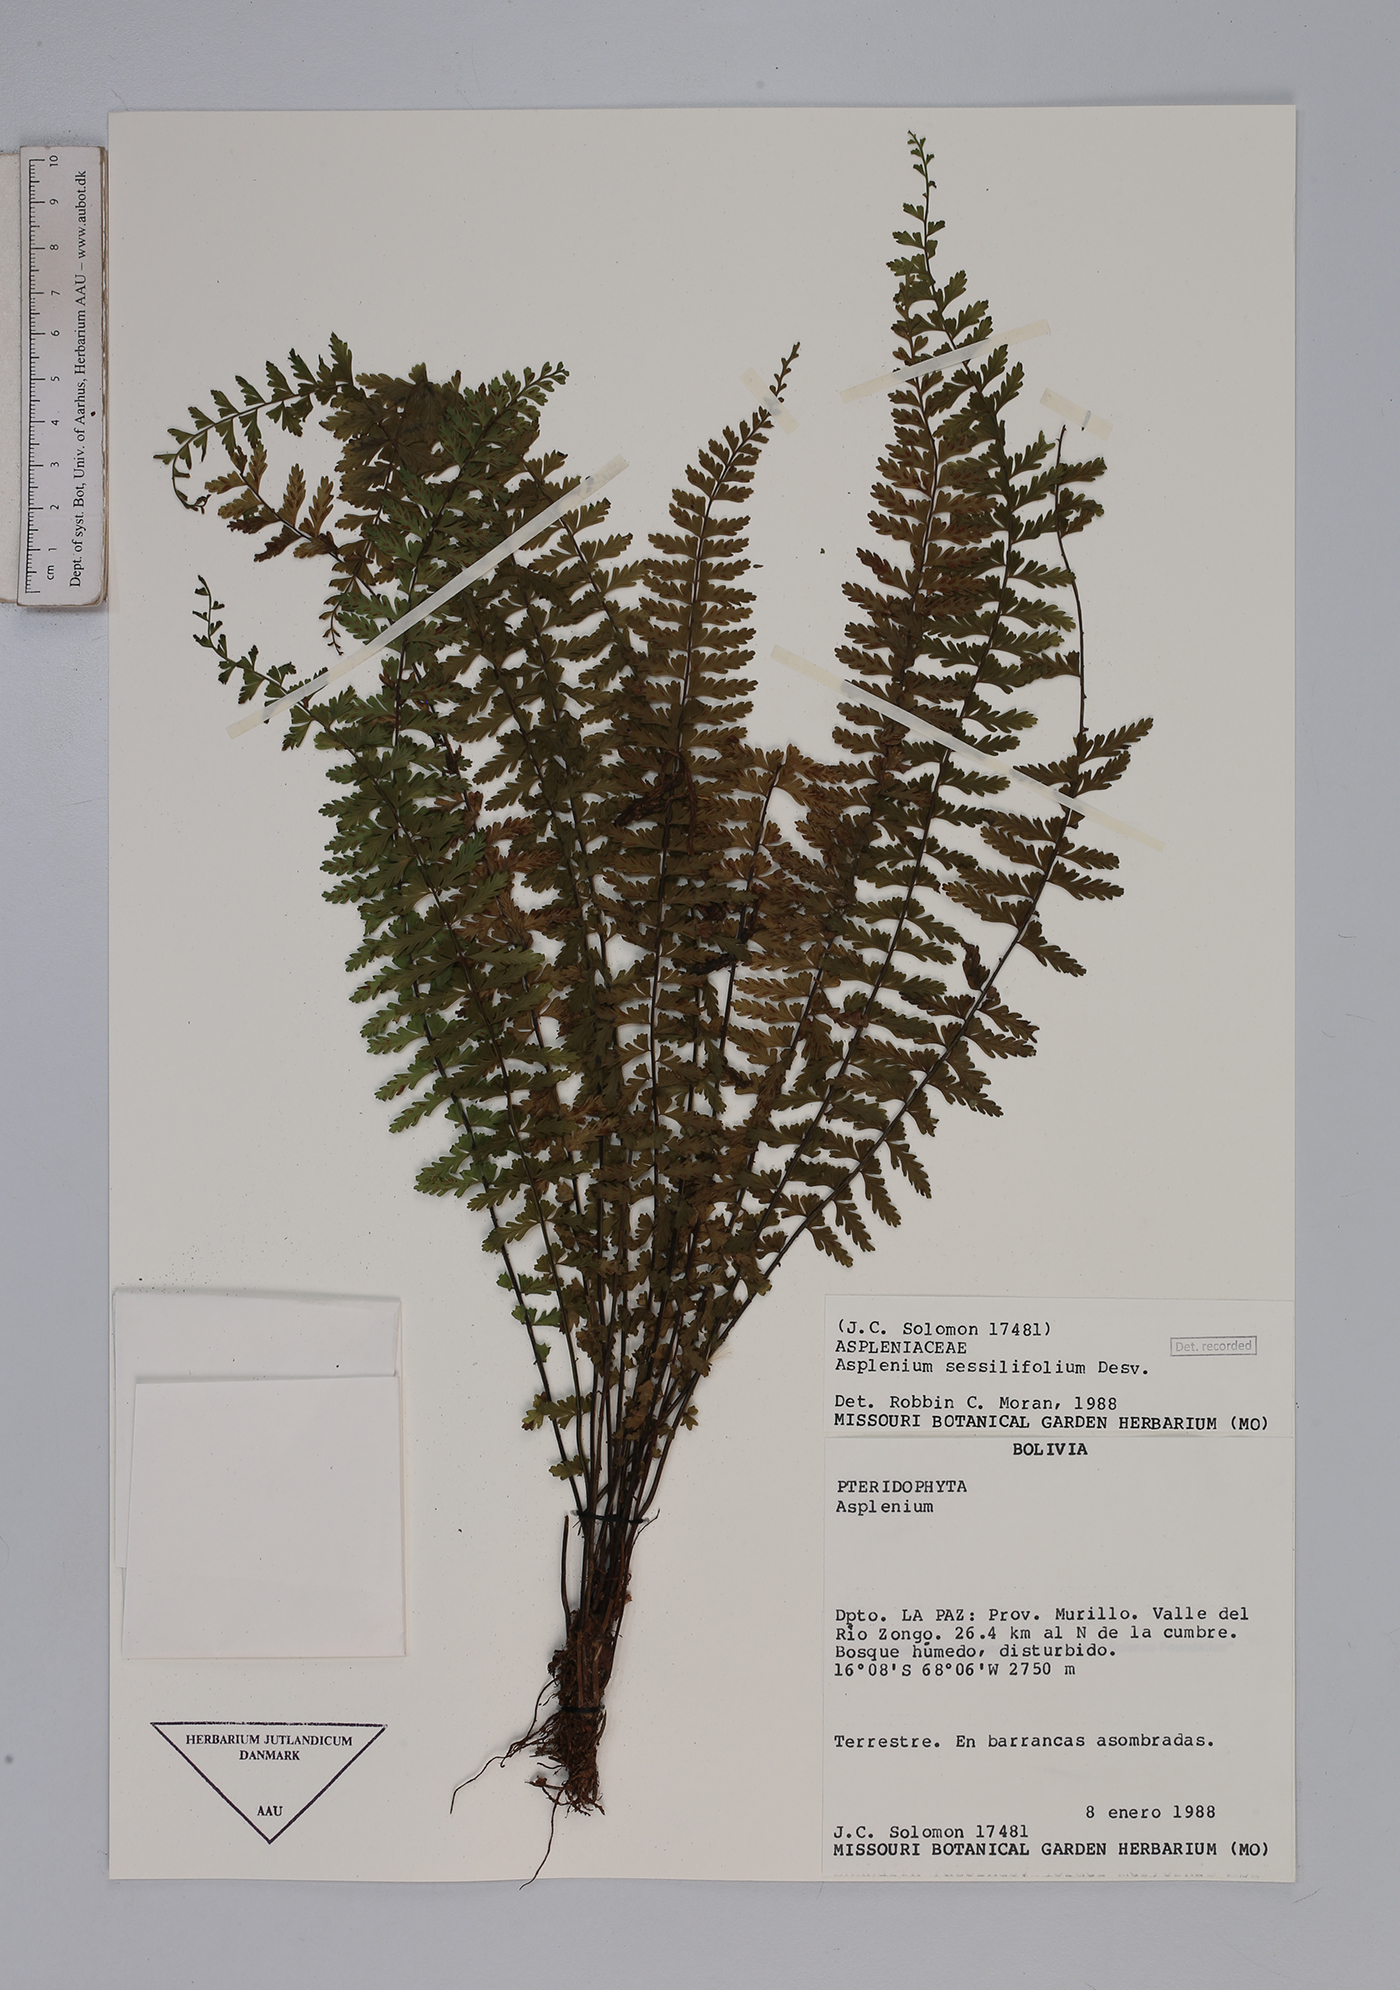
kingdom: Plantae
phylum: Tracheophyta
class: Polypodiopsida
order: Polypodiales
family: Aspleniaceae
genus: Asplenium
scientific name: Asplenium sessilifolium
